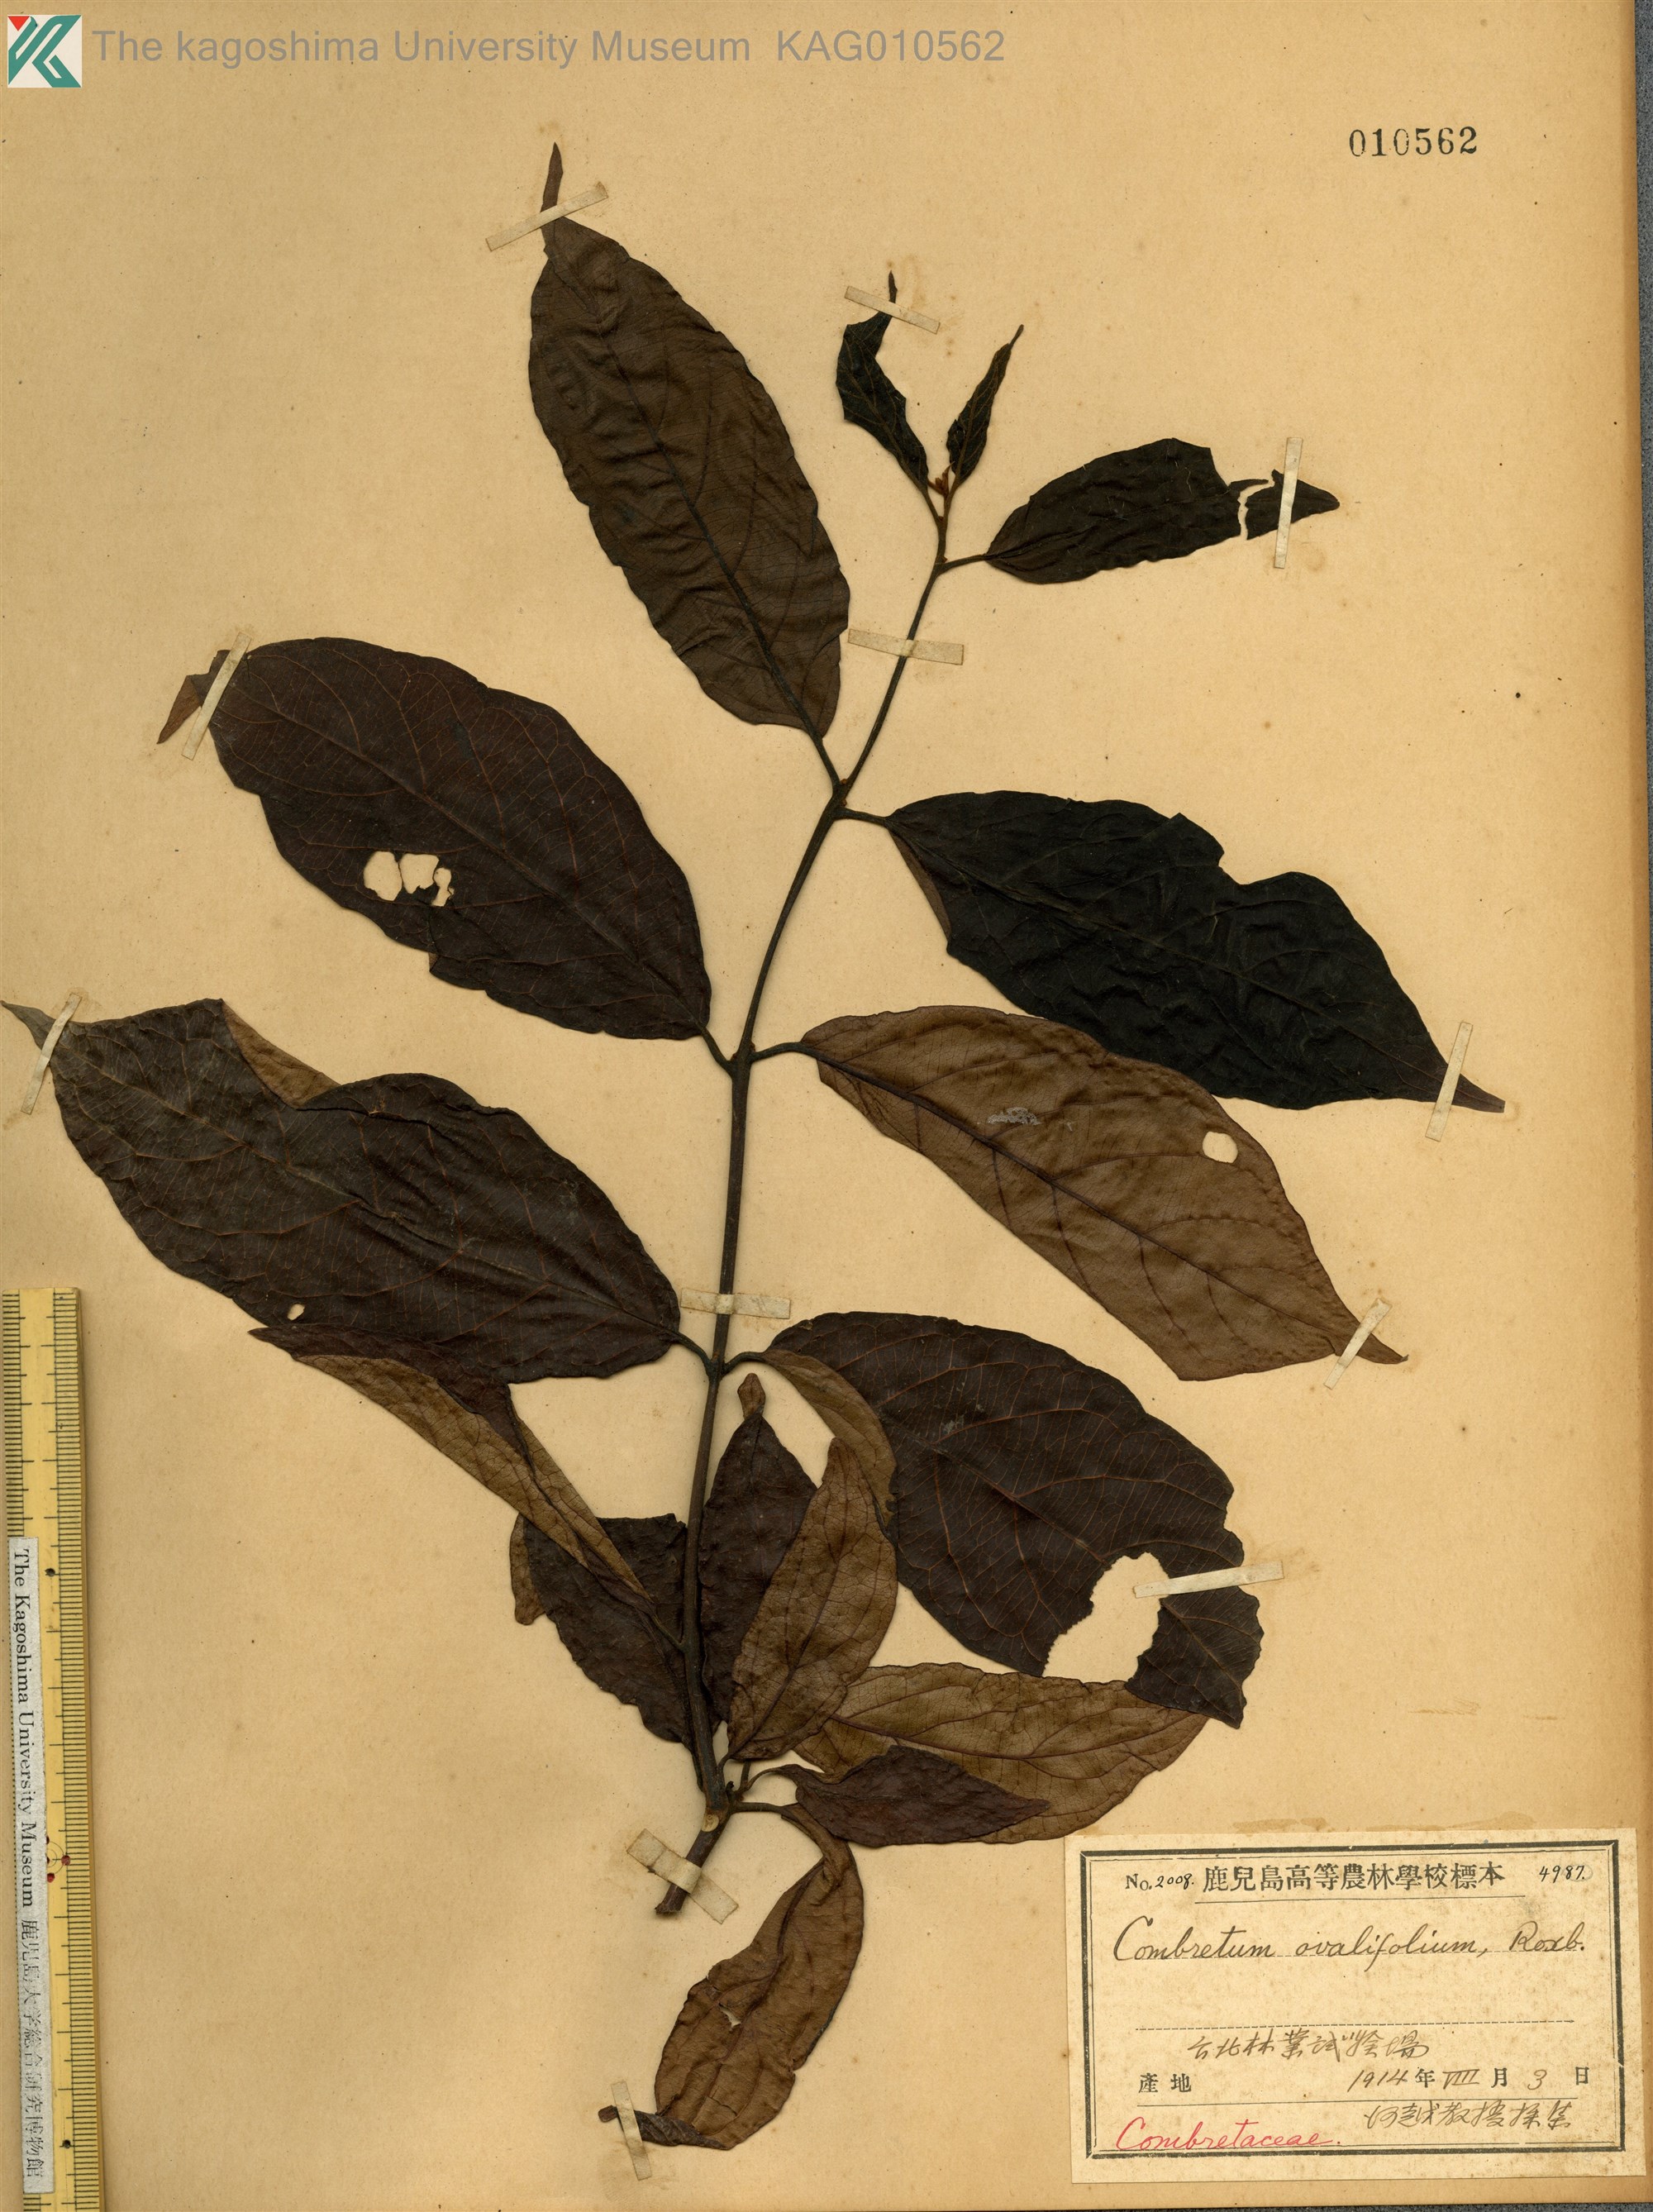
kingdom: Plantae
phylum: Tracheophyta
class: Magnoliopsida
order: Myrtales
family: Combretaceae
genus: Combretum
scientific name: Combretum albidum
